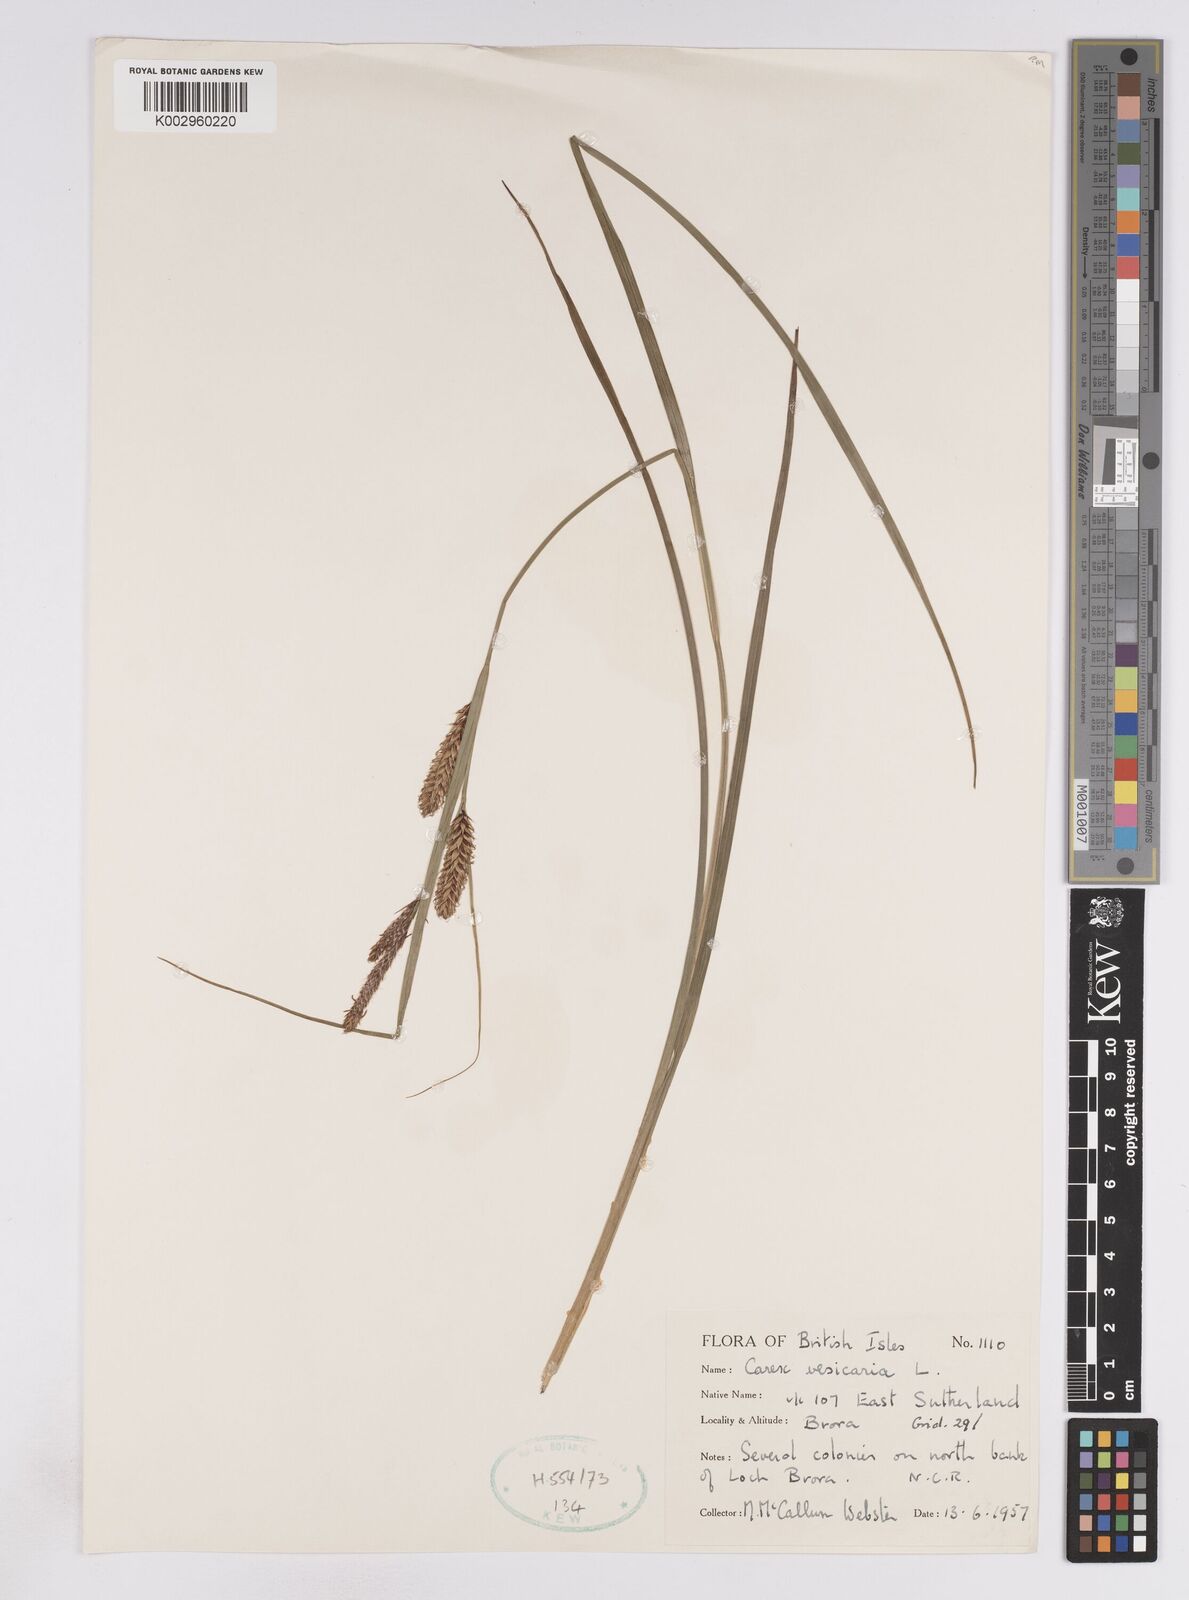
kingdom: Plantae
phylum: Tracheophyta
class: Liliopsida
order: Poales
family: Cyperaceae
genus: Carex
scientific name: Carex vesicaria
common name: Bladder-sedge
